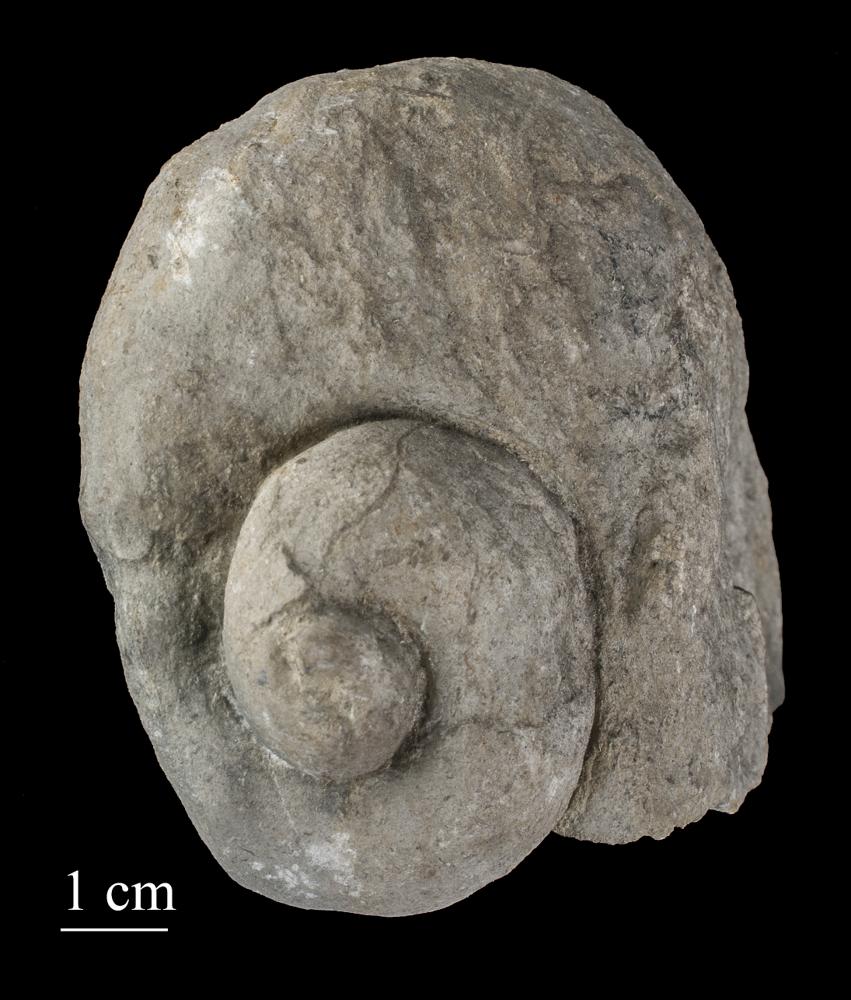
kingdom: Animalia
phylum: Mollusca
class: Gastropoda
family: Holopeidae
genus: Holopea
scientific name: Holopea ampullacea
